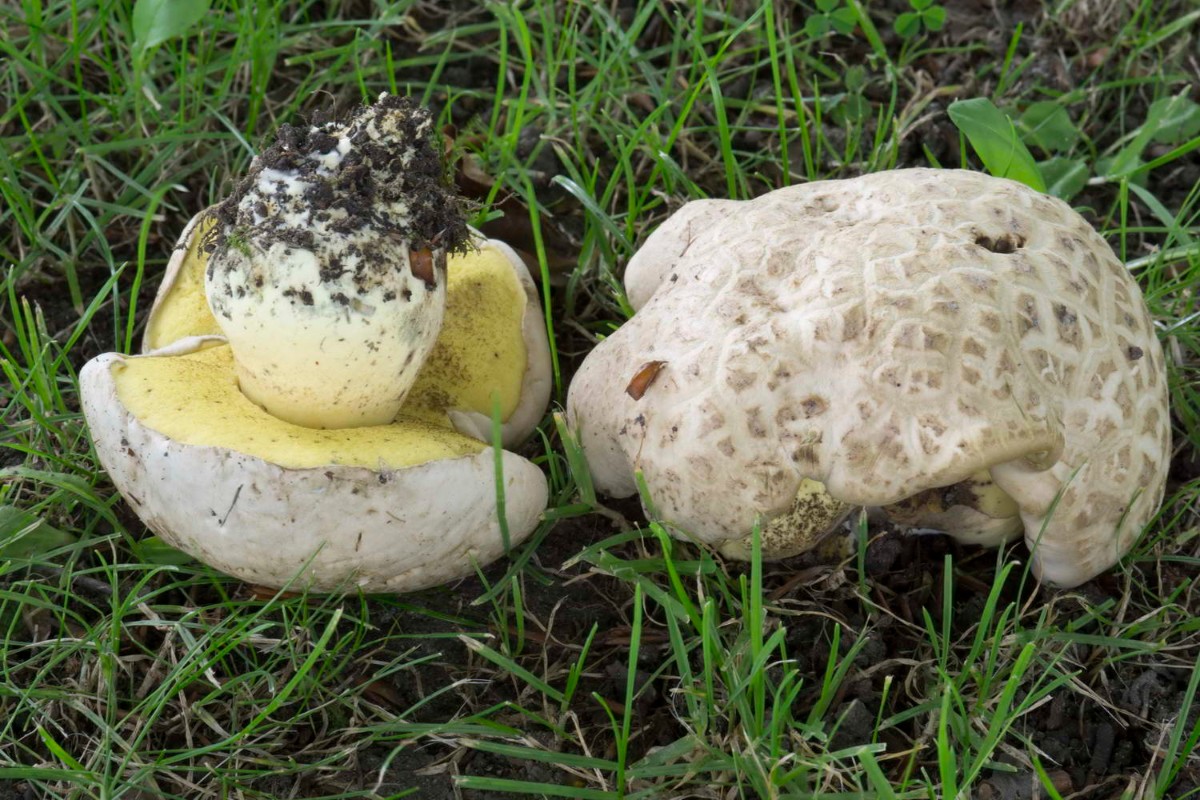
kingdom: Fungi
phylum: Basidiomycota
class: Agaricomycetes
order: Boletales
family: Boletaceae
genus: Caloboletus
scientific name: Caloboletus radicans
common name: rod-rørhat
